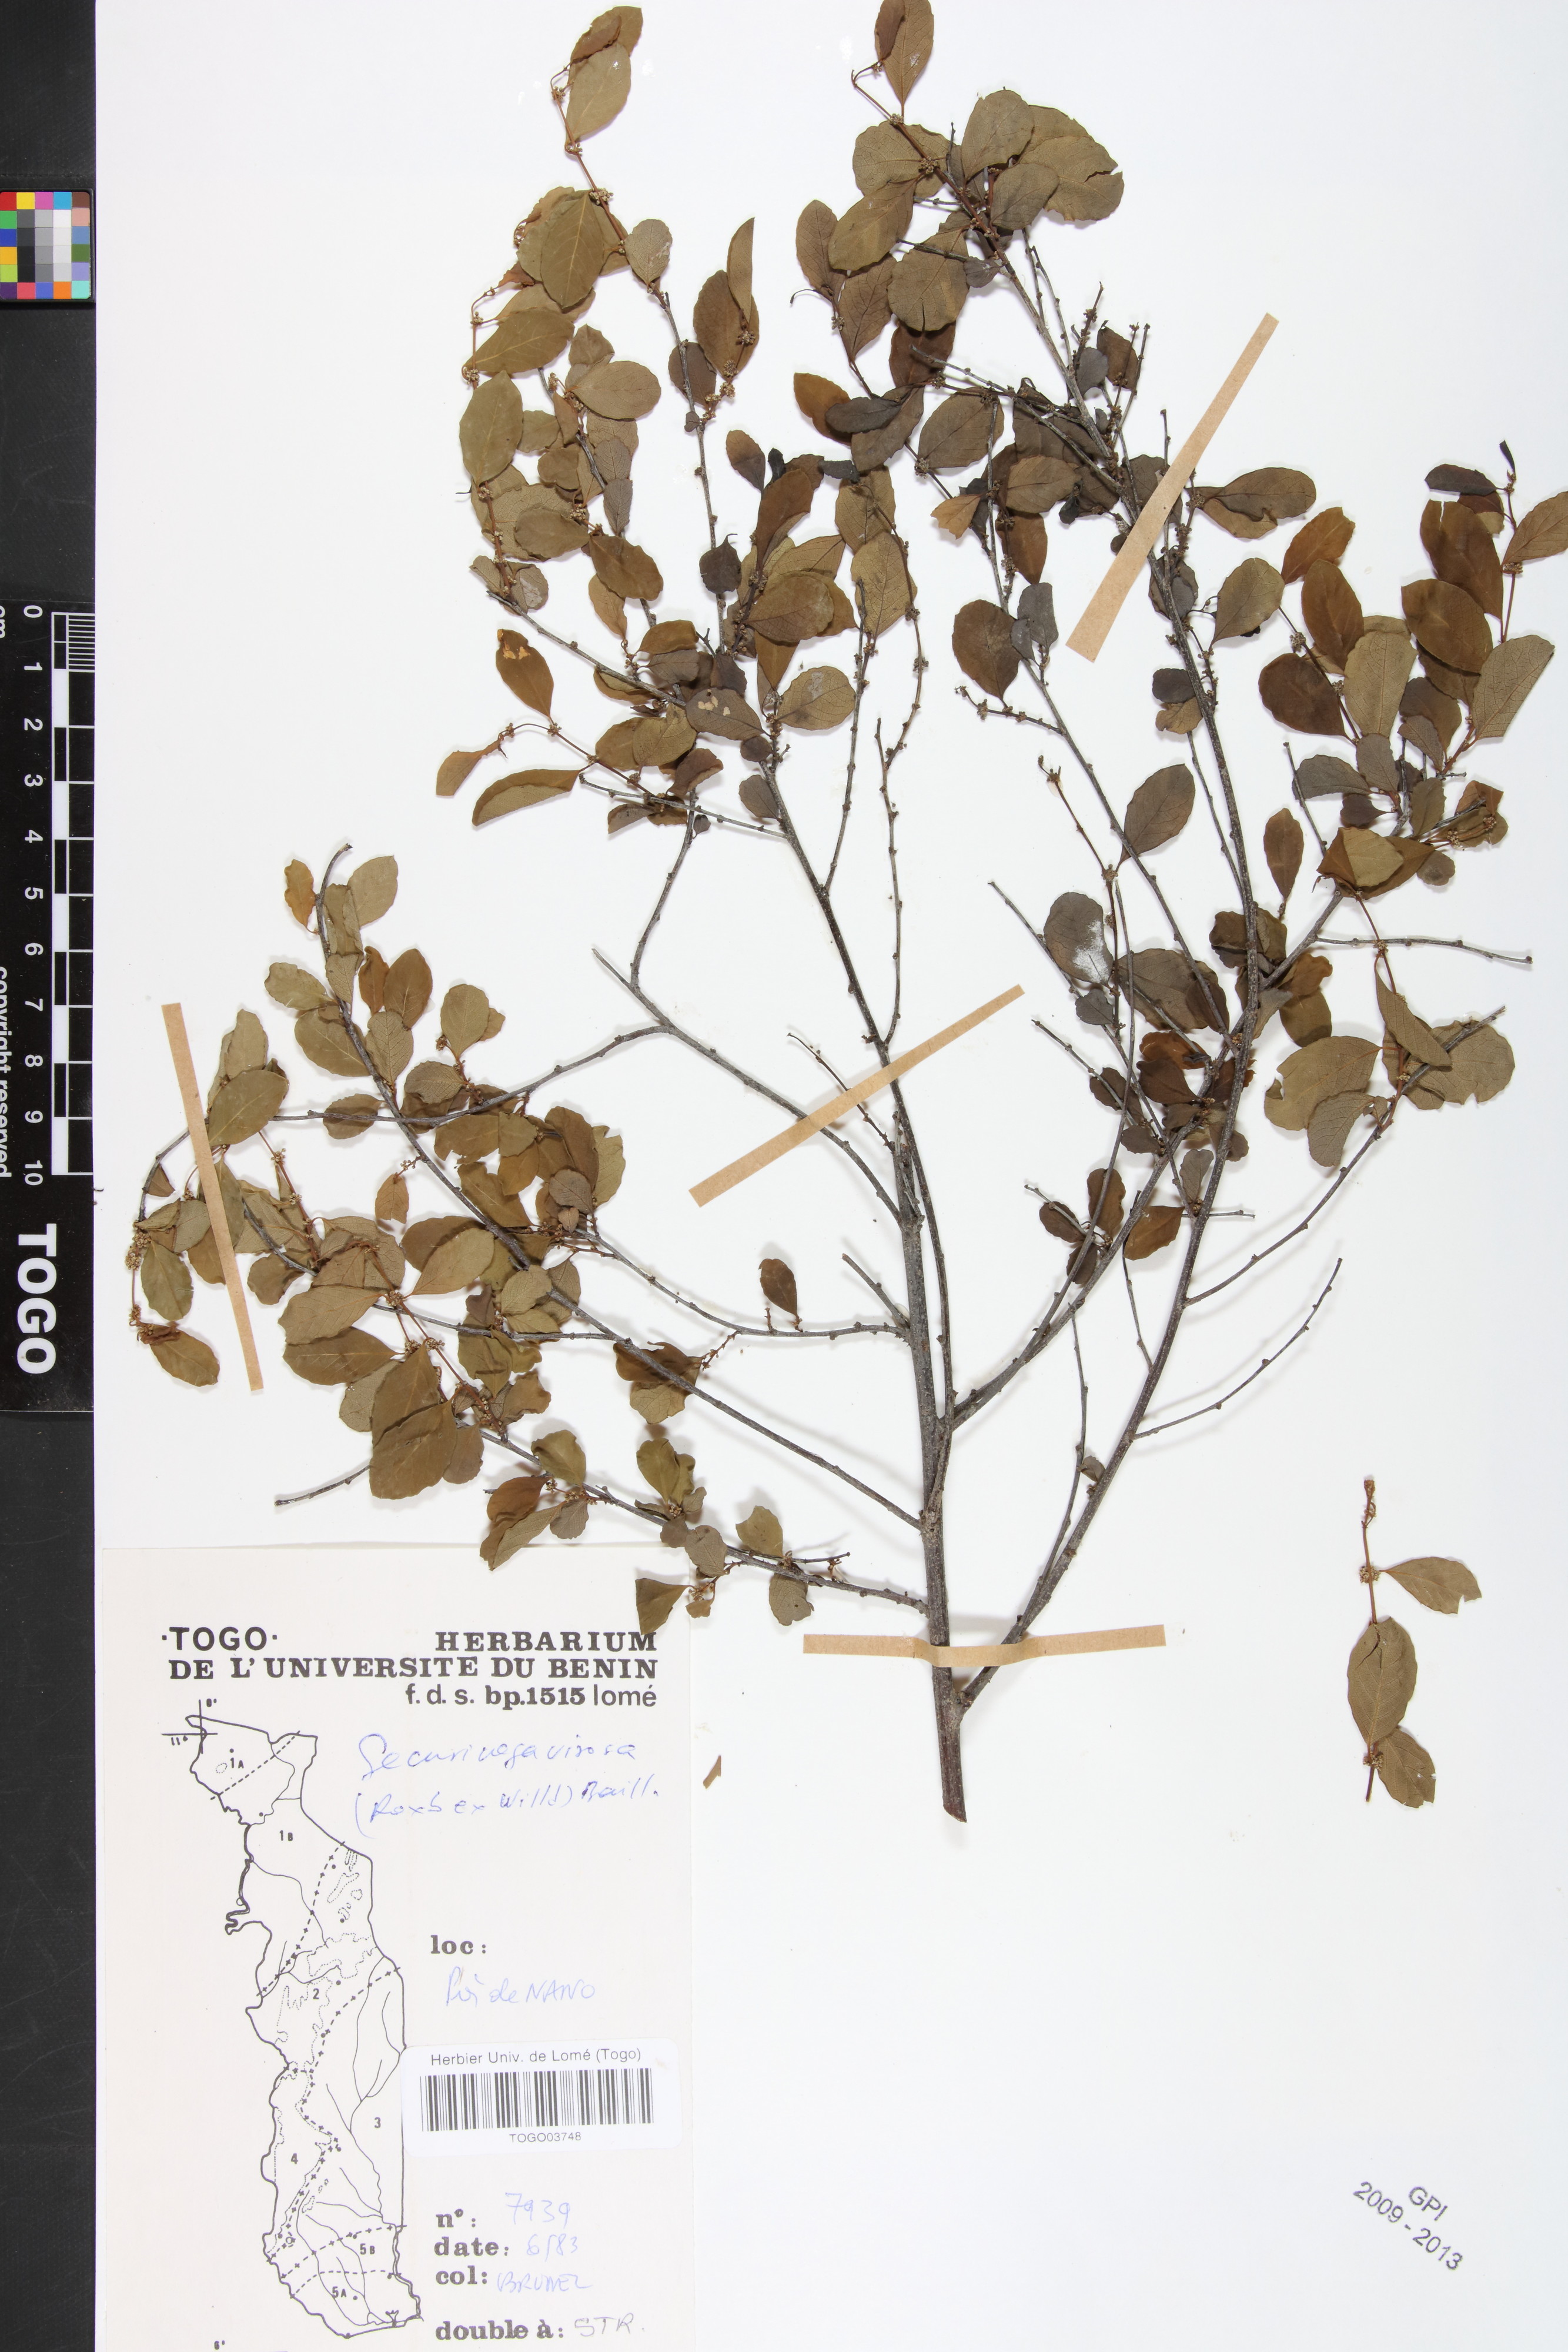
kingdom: Plantae
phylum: Tracheophyta
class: Magnoliopsida
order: Malpighiales
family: Phyllanthaceae
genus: Flueggea
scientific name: Flueggea virosa
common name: Common bushweed
